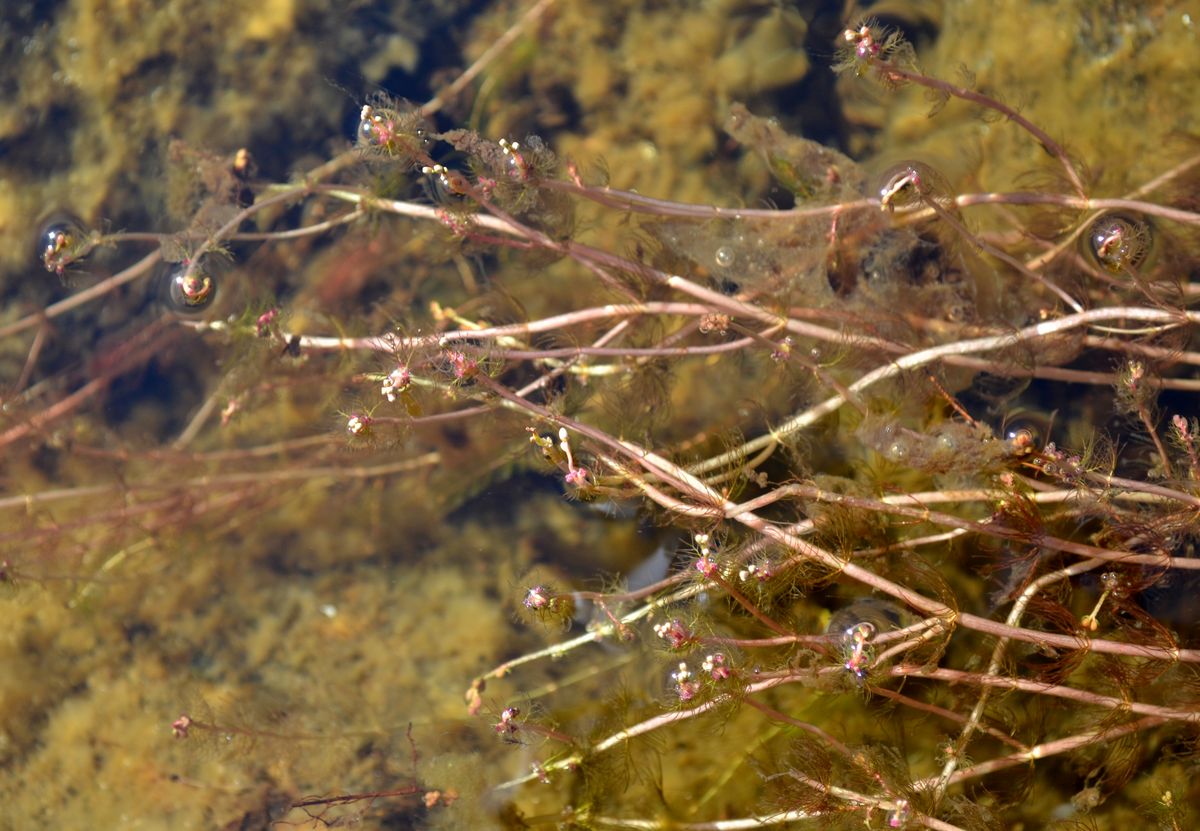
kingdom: Plantae
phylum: Tracheophyta
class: Magnoliopsida
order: Saxifragales
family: Haloragaceae
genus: Myriophyllum
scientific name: Myriophyllum sibiricum
